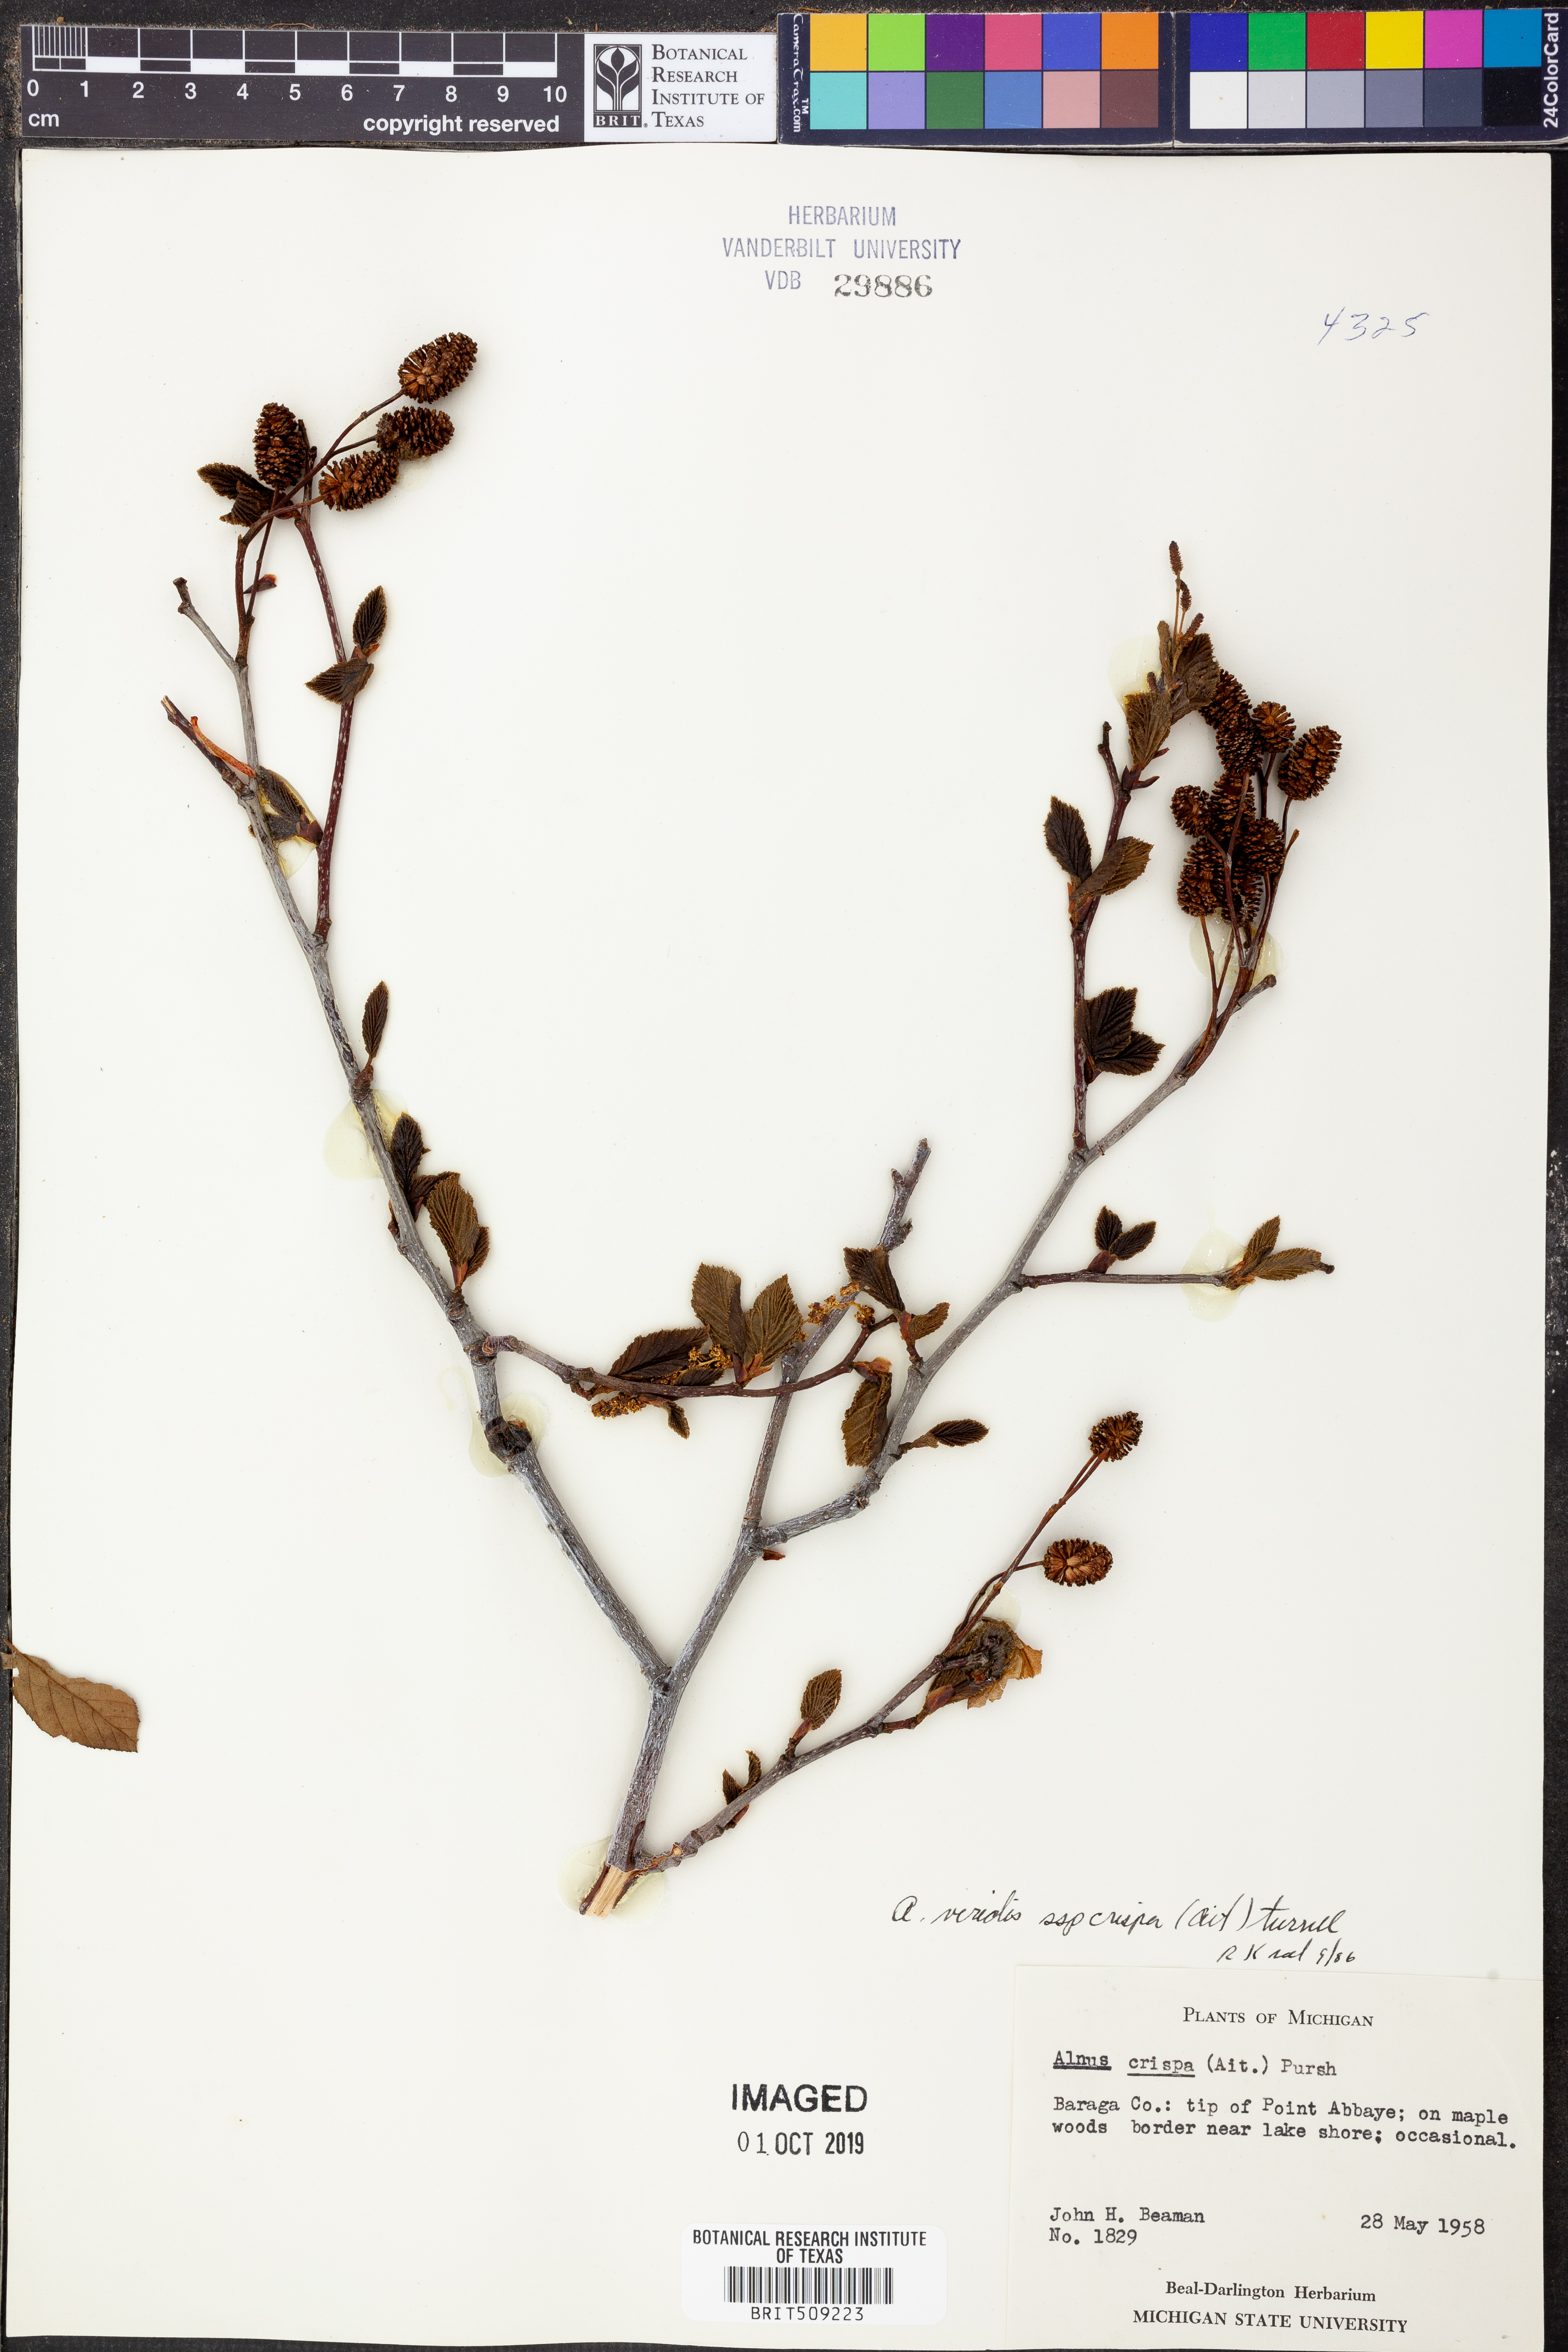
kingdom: Plantae
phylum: Tracheophyta
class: Magnoliopsida
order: Fagales
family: Betulaceae
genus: Alnus
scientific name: Alnus alnobetula
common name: Green alder
